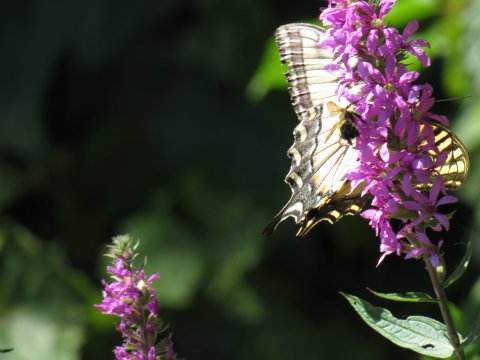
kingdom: Animalia
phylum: Arthropoda
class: Insecta
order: Lepidoptera
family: Papilionidae
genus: Pterourus
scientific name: Pterourus
